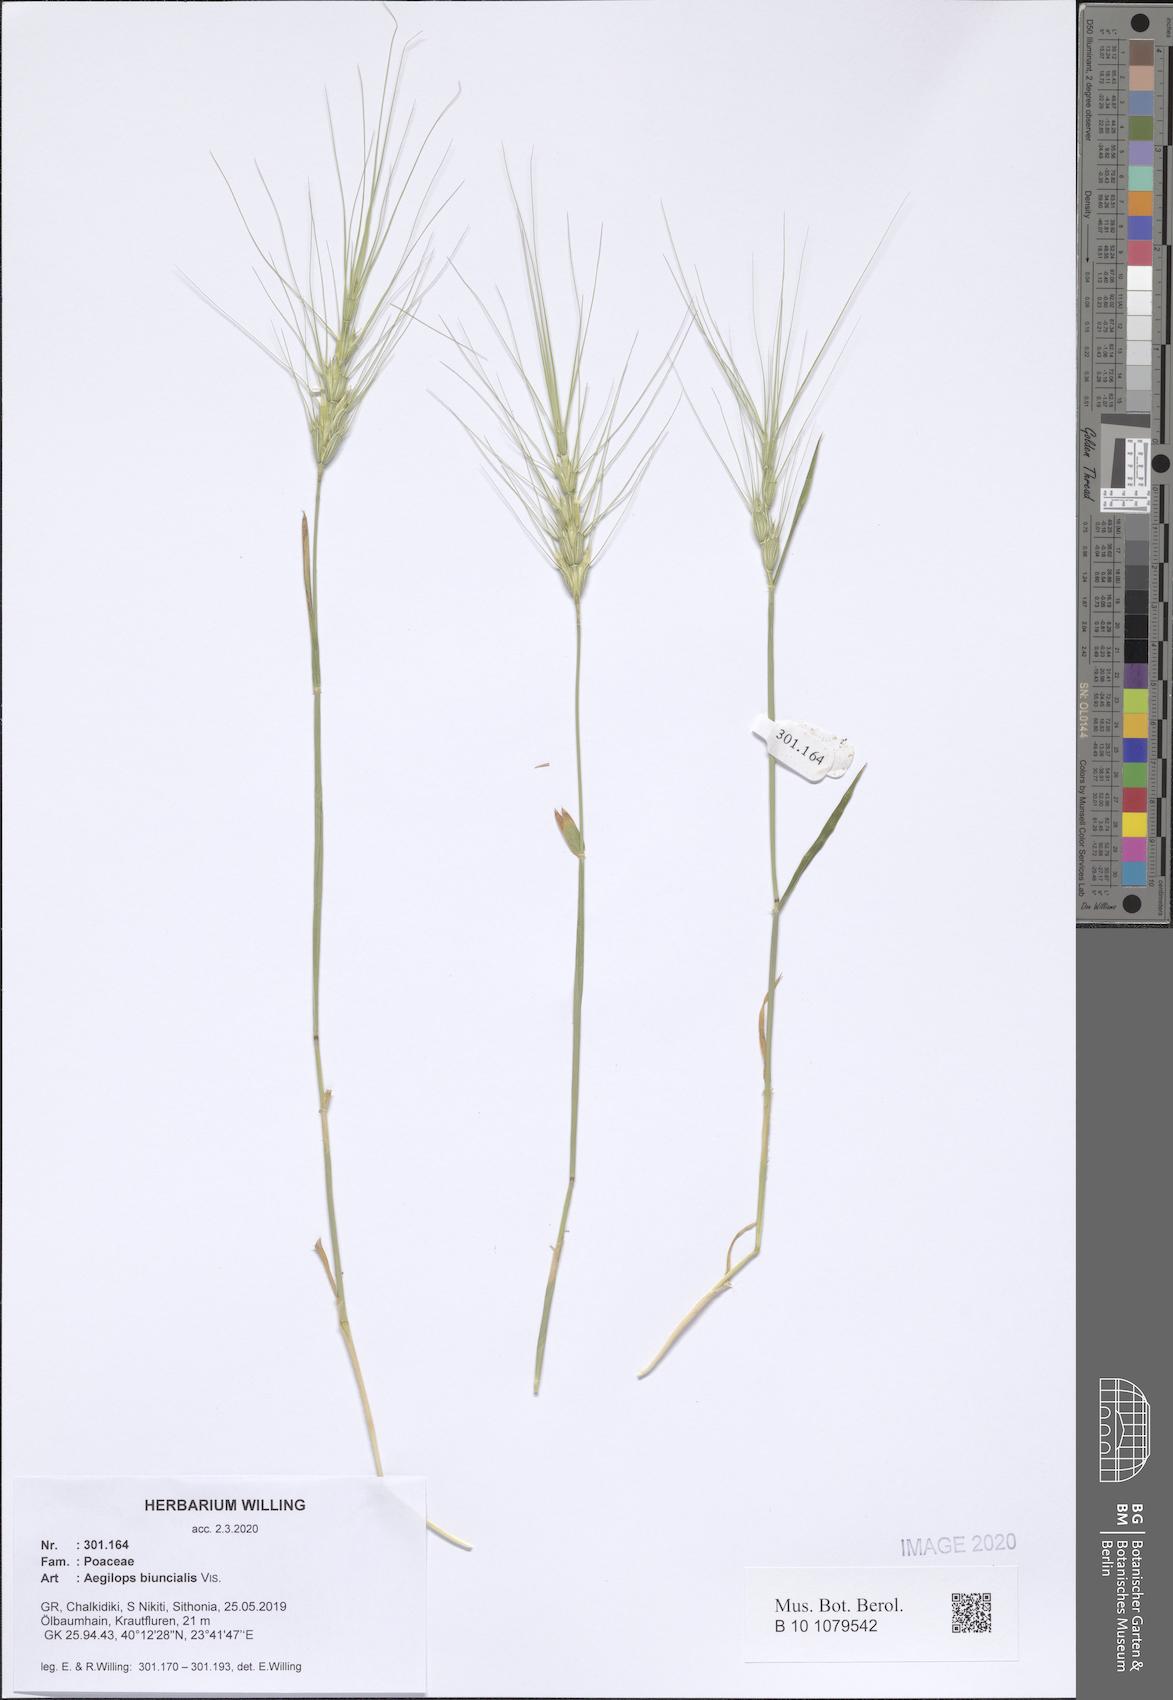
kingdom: Plantae
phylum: Tracheophyta
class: Liliopsida
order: Poales
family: Poaceae
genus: Aegilops
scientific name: Aegilops biuncialis
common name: Mediterranean aegilops
